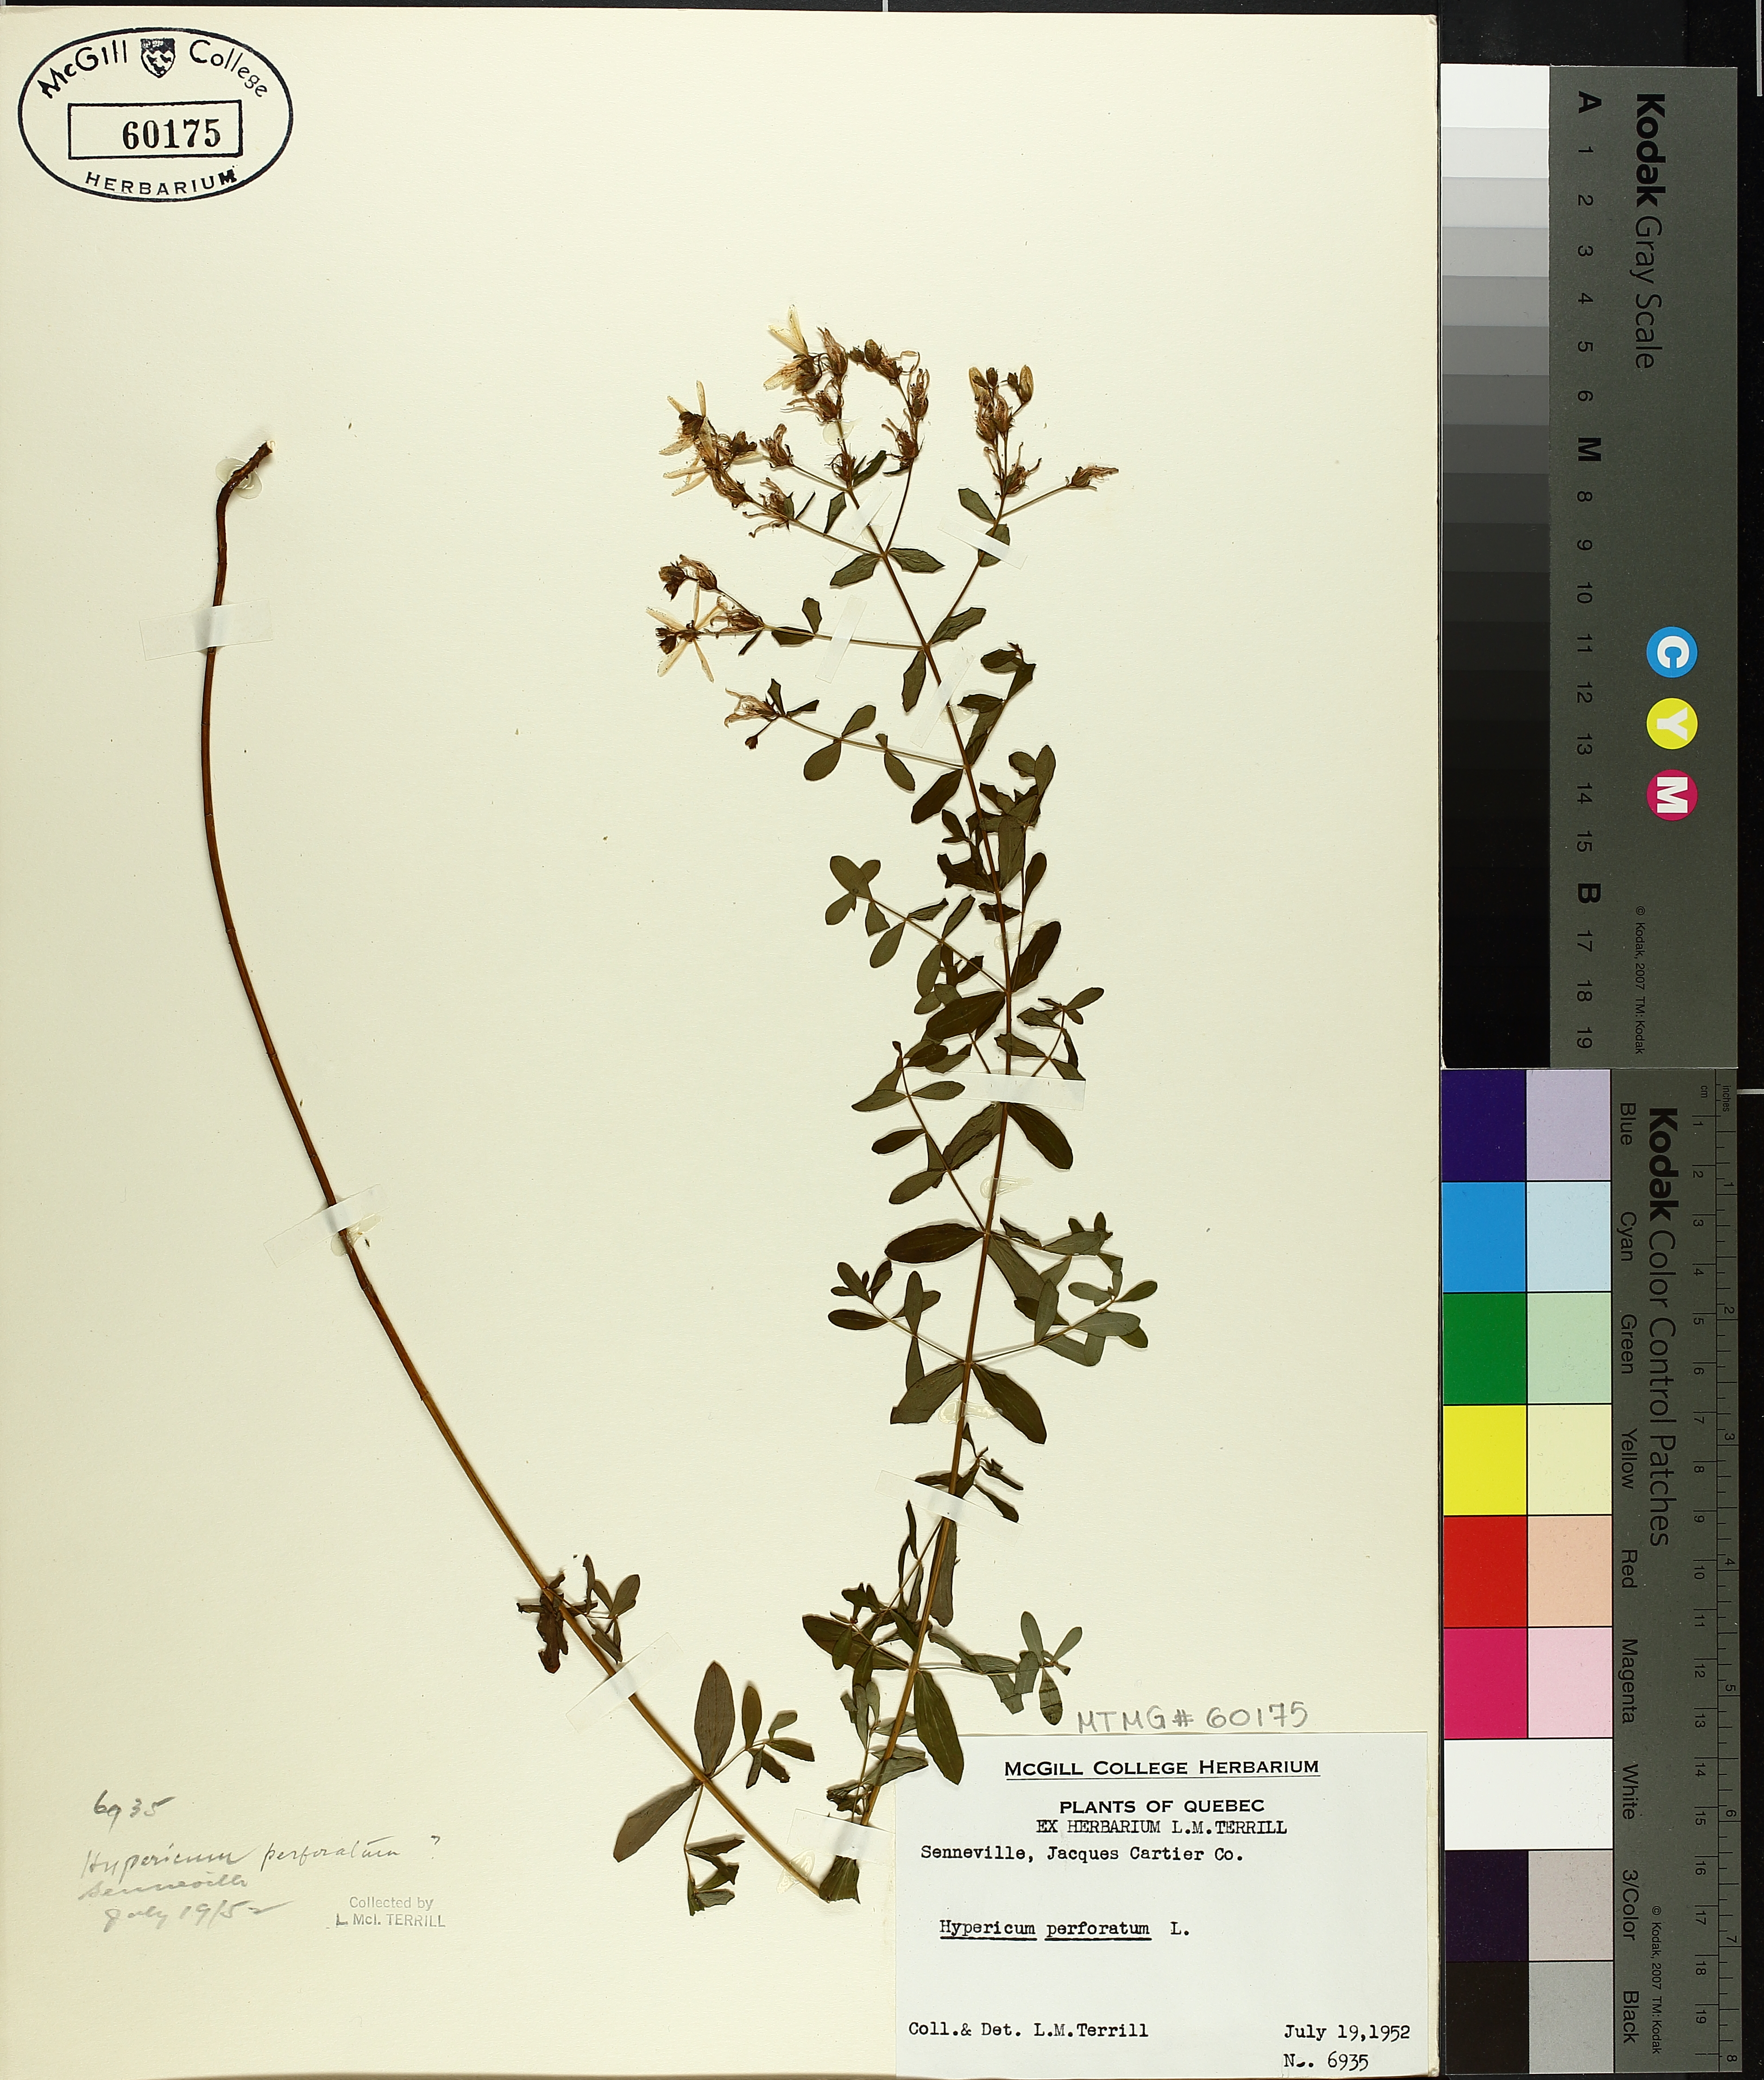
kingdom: Plantae
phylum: Tracheophyta
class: Magnoliopsida
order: Malpighiales
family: Hypericaceae
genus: Hypericum
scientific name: Hypericum perforatum
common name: Common st. johnswort
